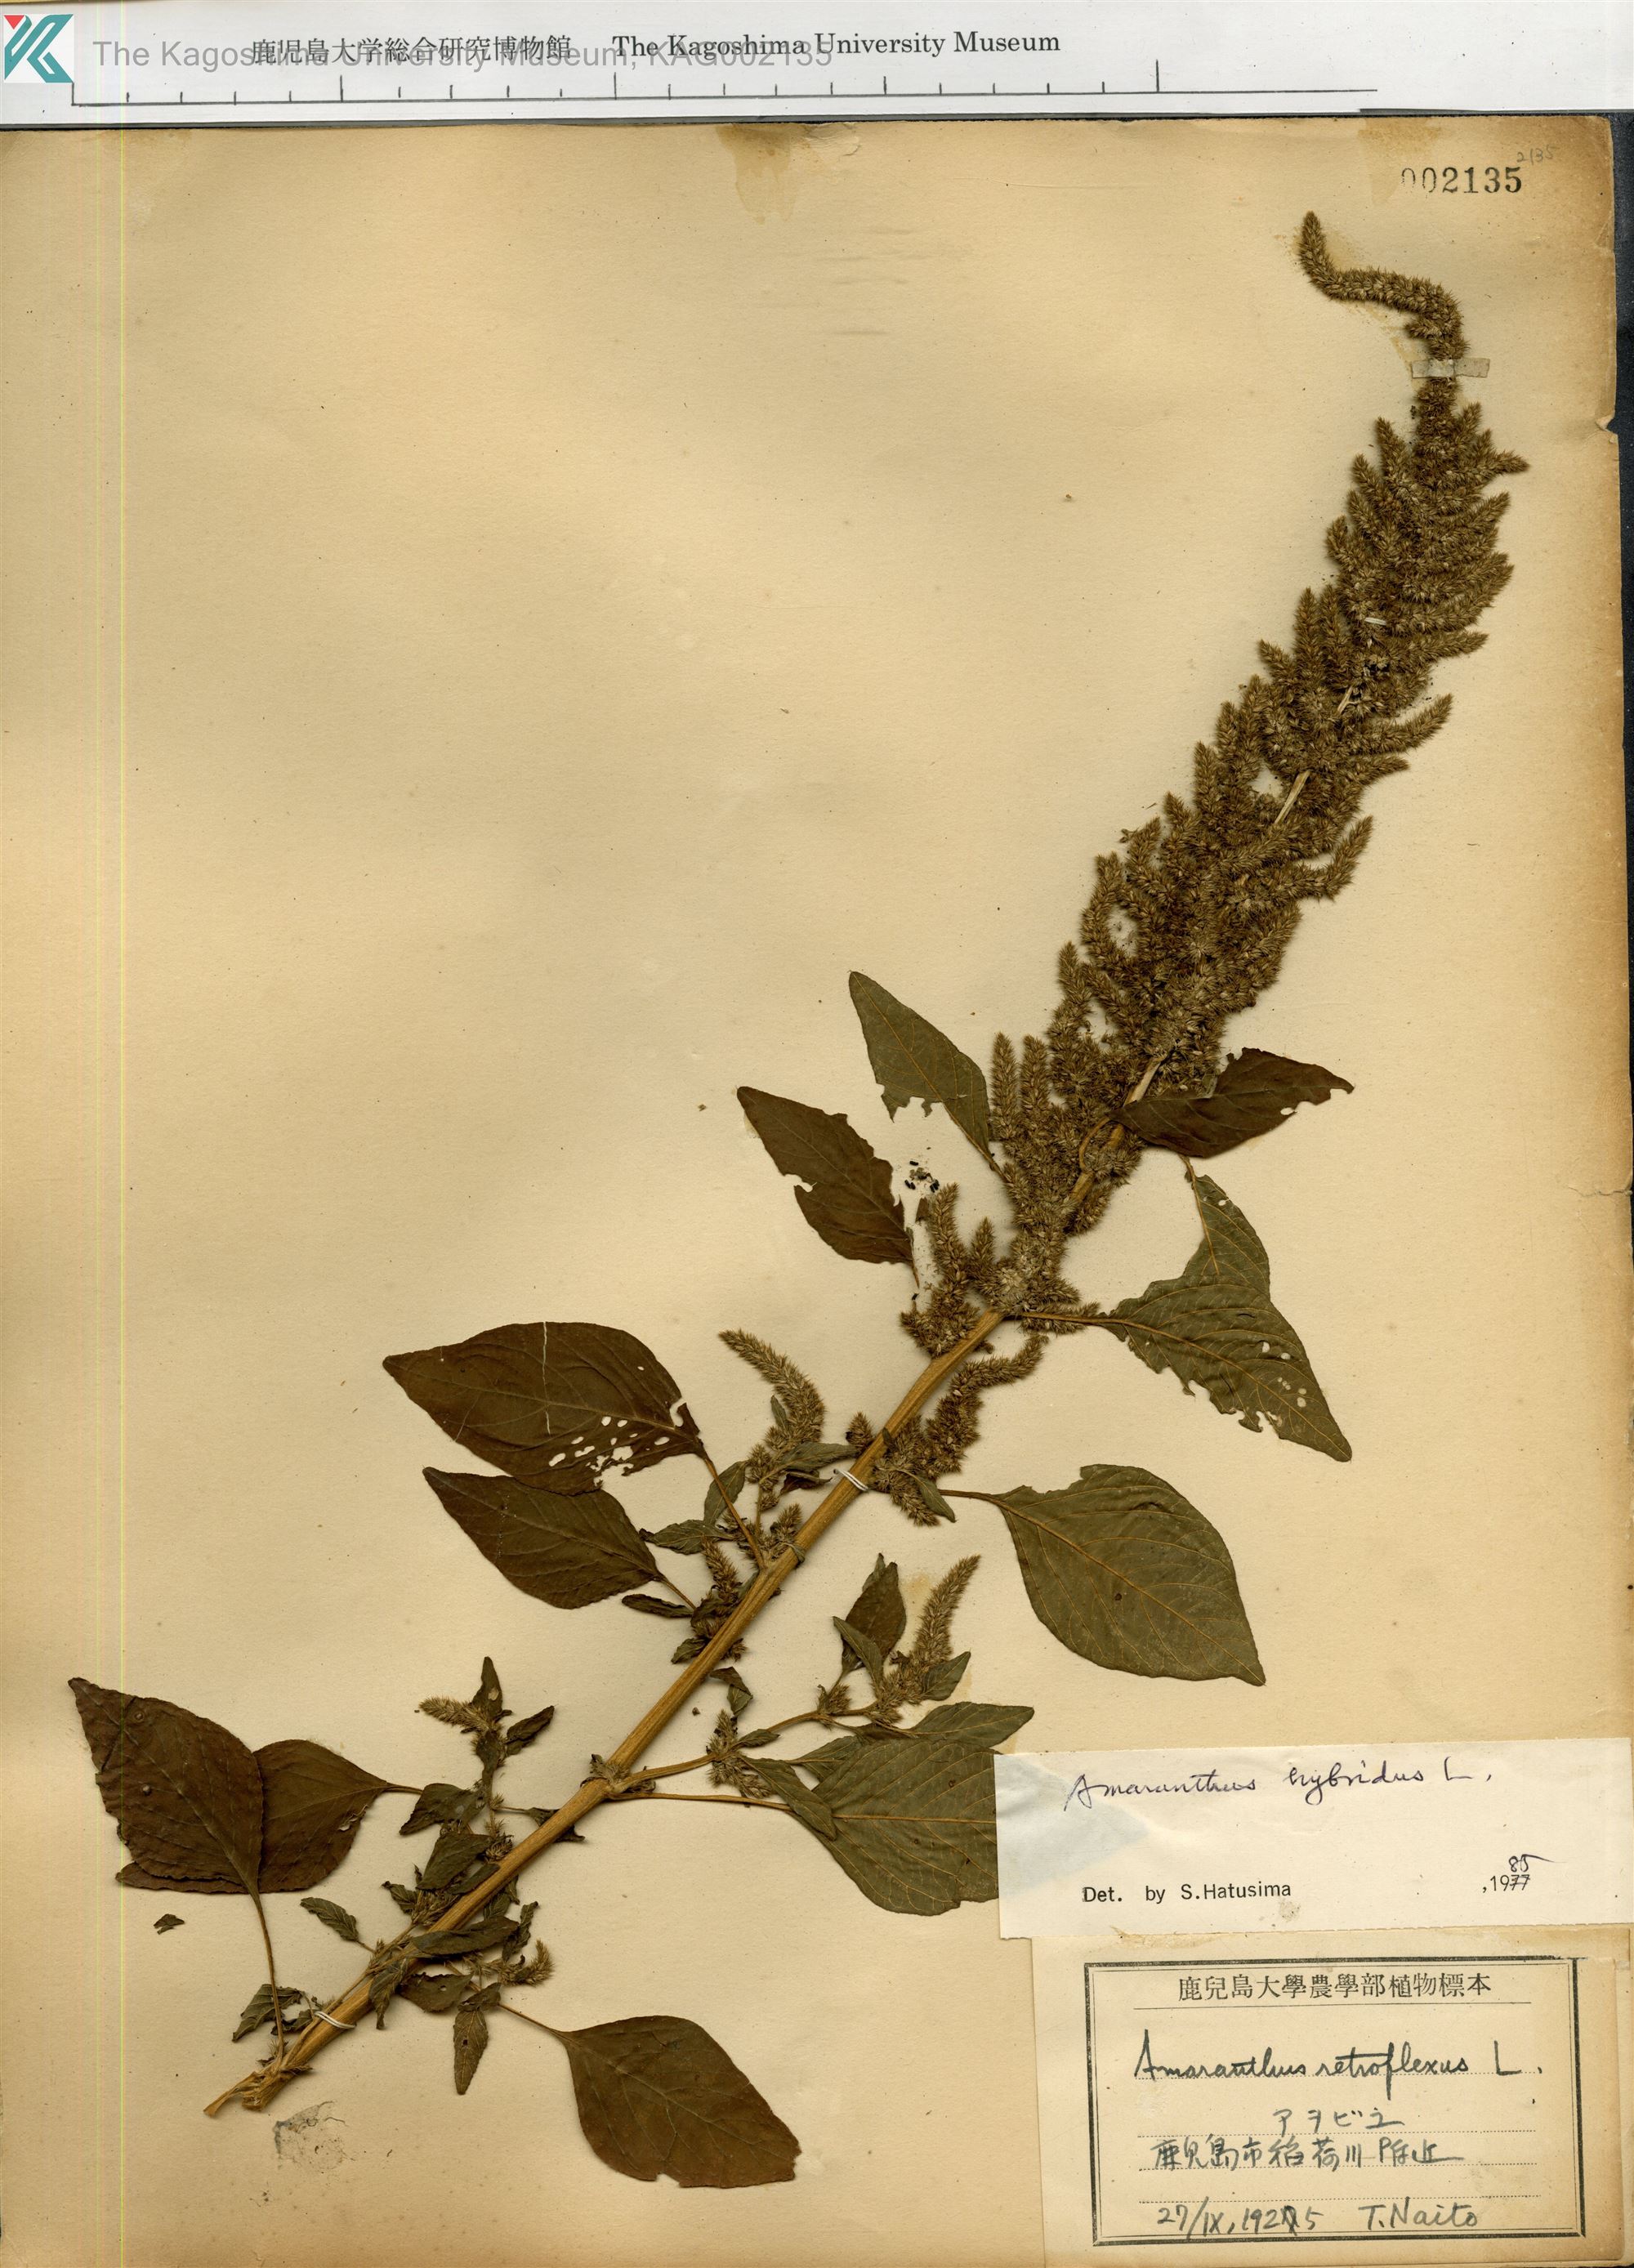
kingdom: Plantae
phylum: Tracheophyta
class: Magnoliopsida
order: Caryophyllales
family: Amaranthaceae
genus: Amaranthus
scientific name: Amaranthus hybridus
